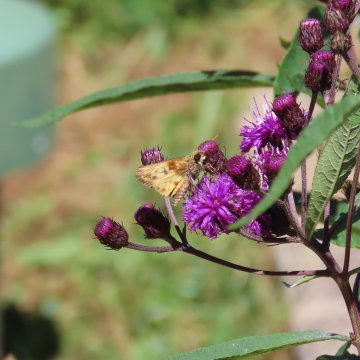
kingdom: Animalia
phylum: Arthropoda
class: Insecta
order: Lepidoptera
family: Hesperiidae
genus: Lon
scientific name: Lon zabulon
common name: Zabulon Skipper
